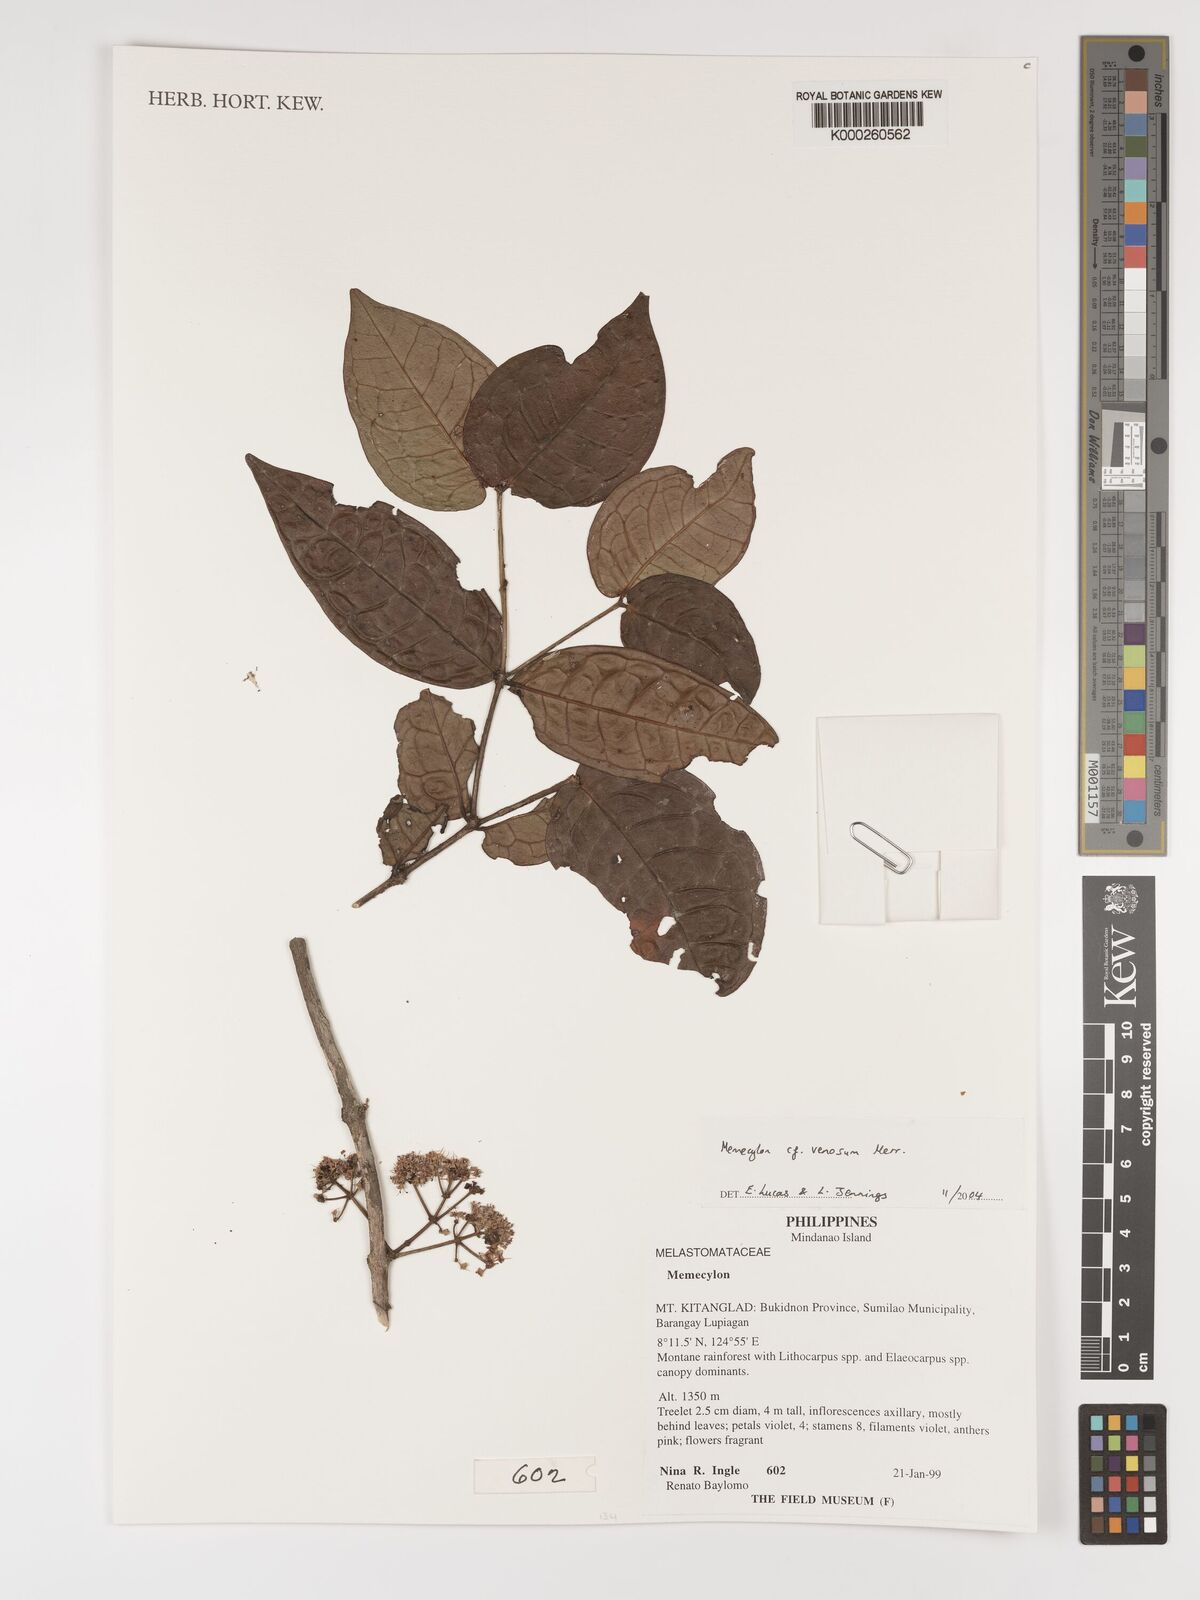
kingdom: Plantae
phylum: Tracheophyta
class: Magnoliopsida
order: Myrtales
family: Melastomataceae
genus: Memecylon
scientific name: Memecylon venosum
